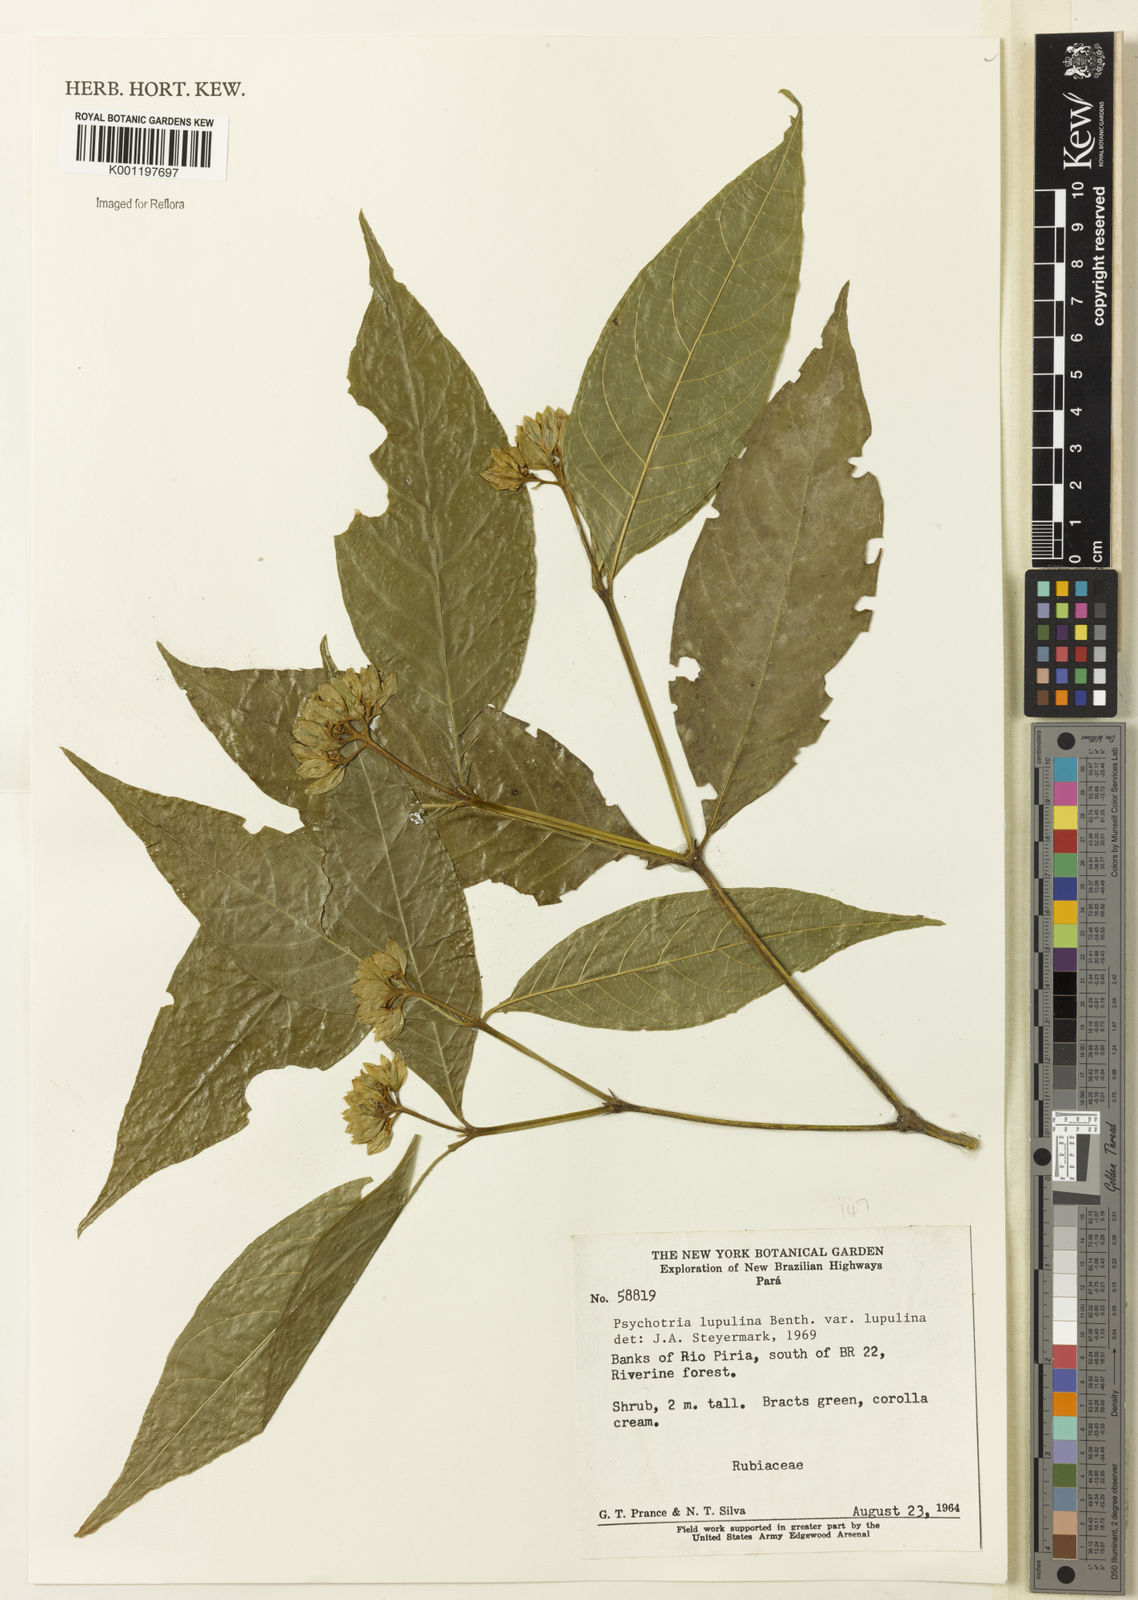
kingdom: Plantae
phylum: Tracheophyta
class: Magnoliopsida
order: Gentianales
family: Rubiaceae
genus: Palicourea
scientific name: Palicourea justiciifolia
